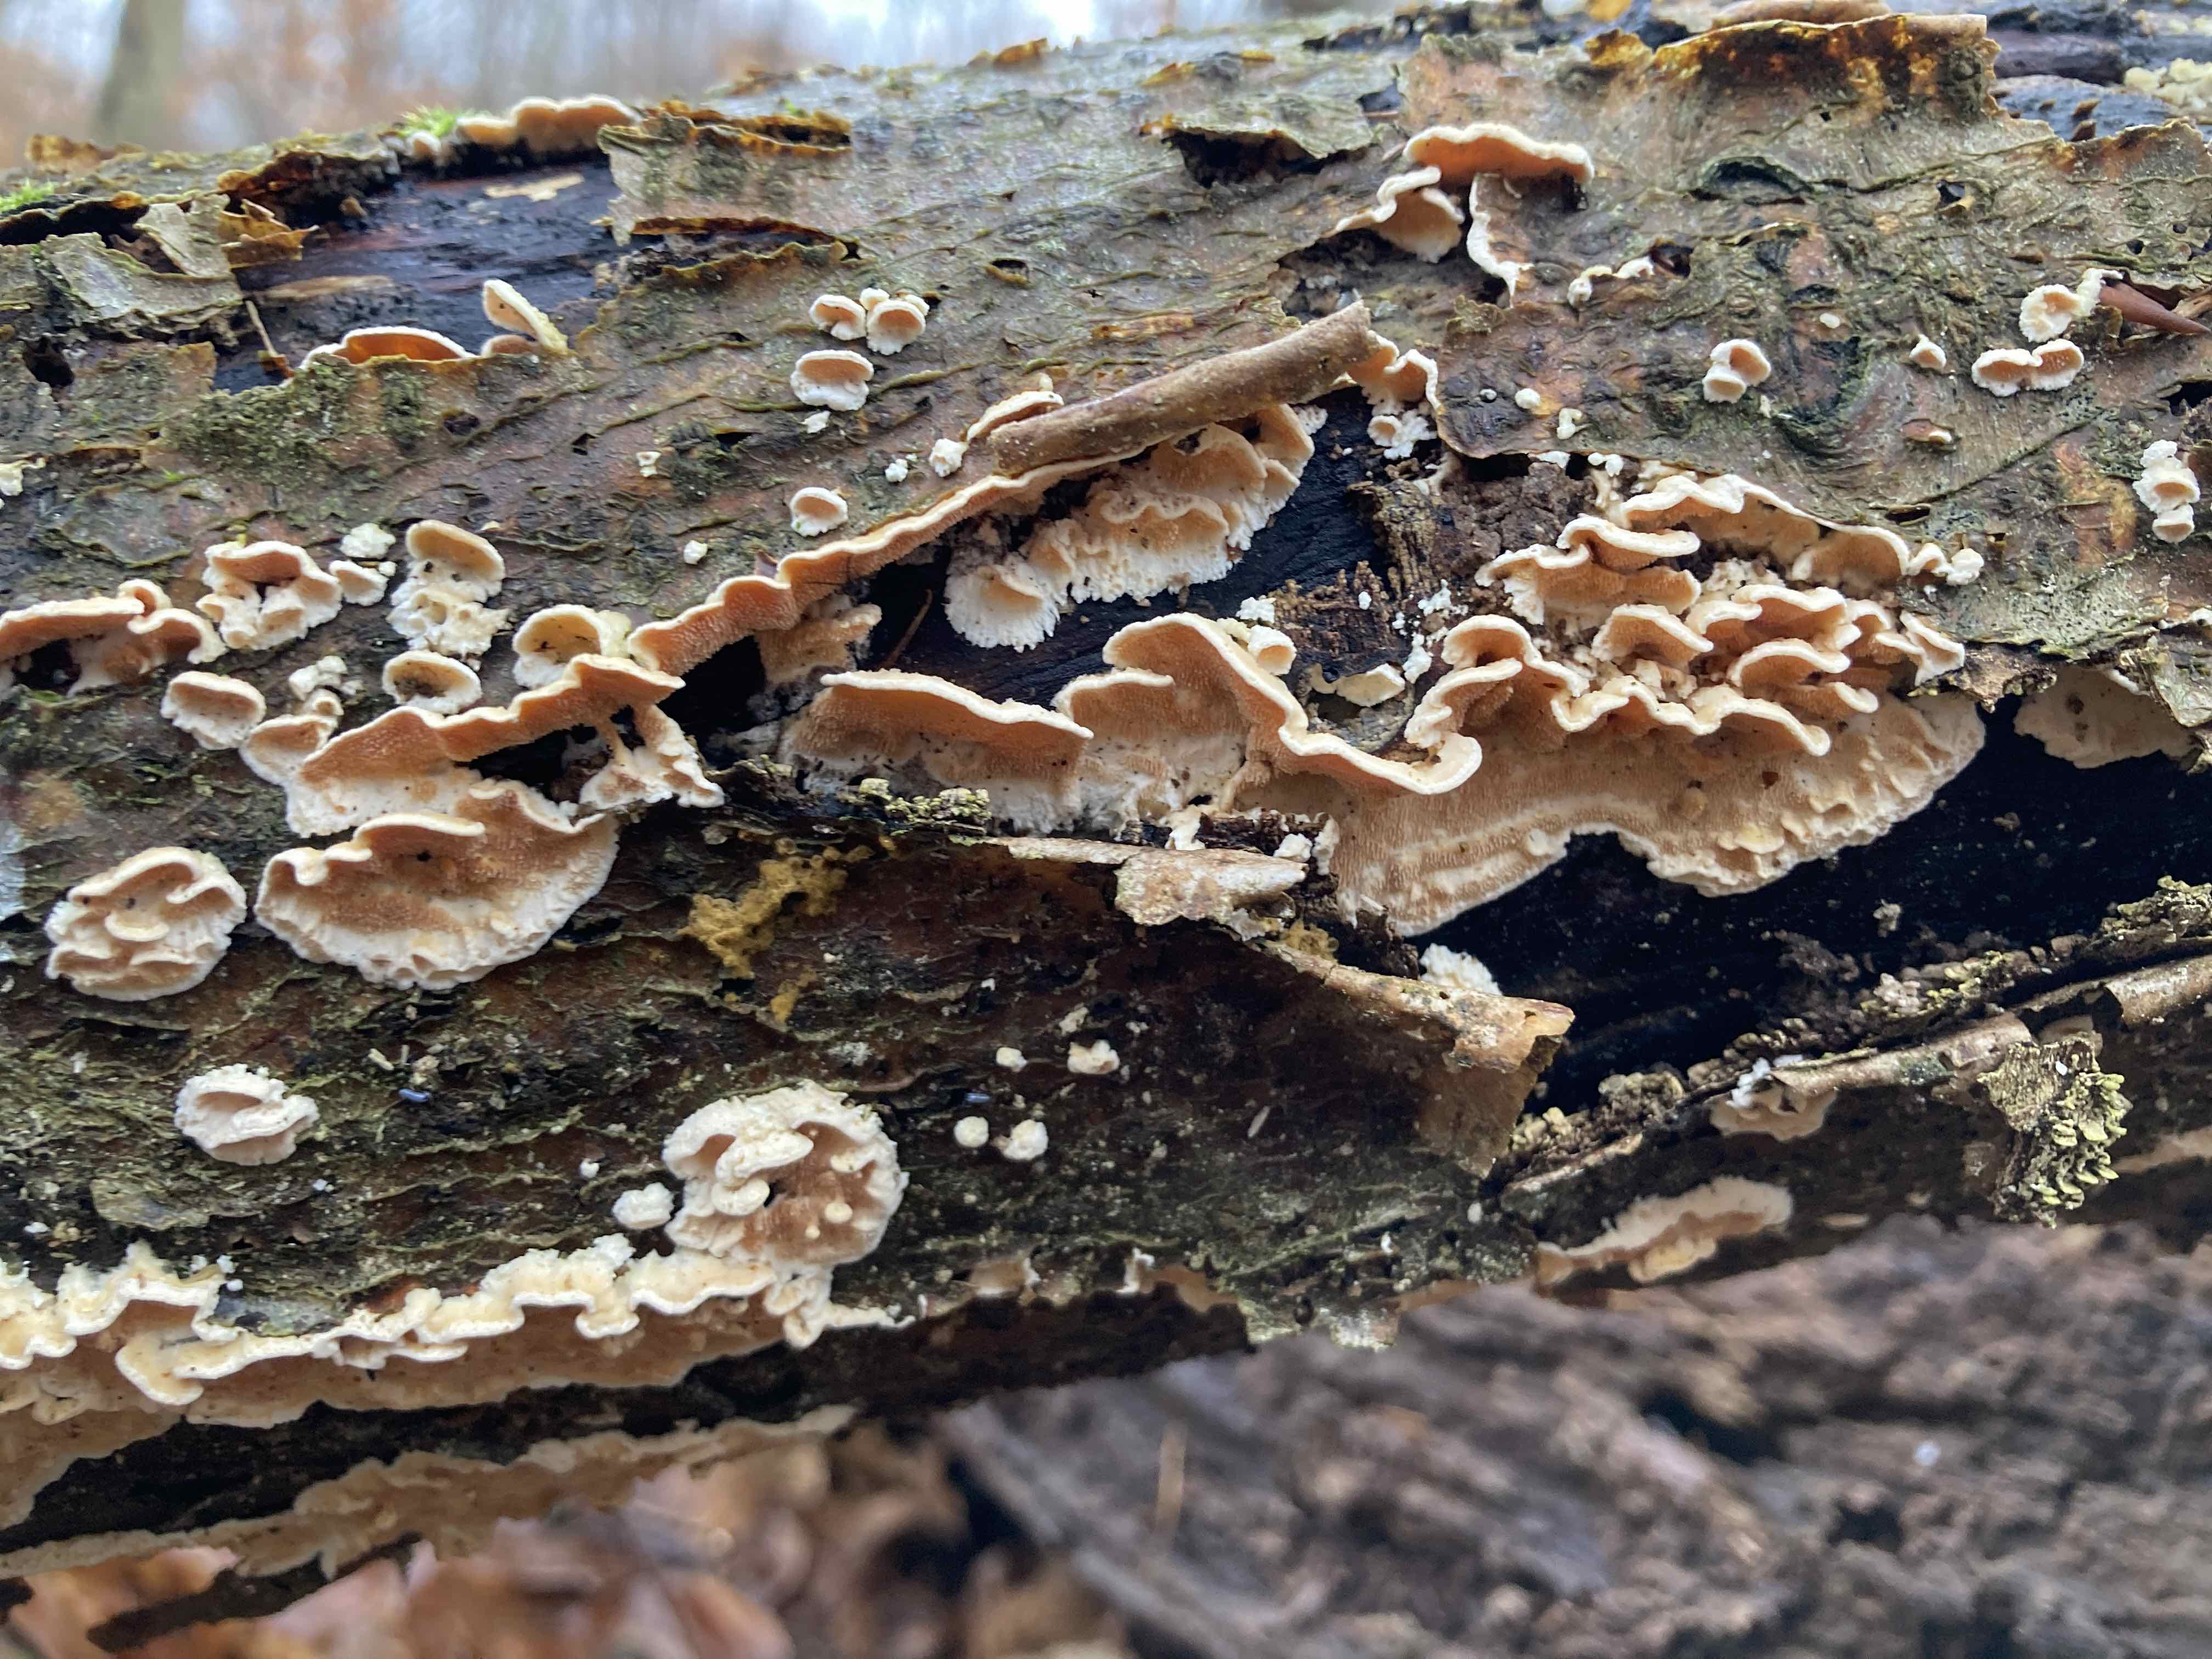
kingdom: Fungi
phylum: Basidiomycota
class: Agaricomycetes
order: Polyporales
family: Steccherinaceae
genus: Steccherinum
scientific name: Steccherinum ochraceum
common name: almindelig skønpig
